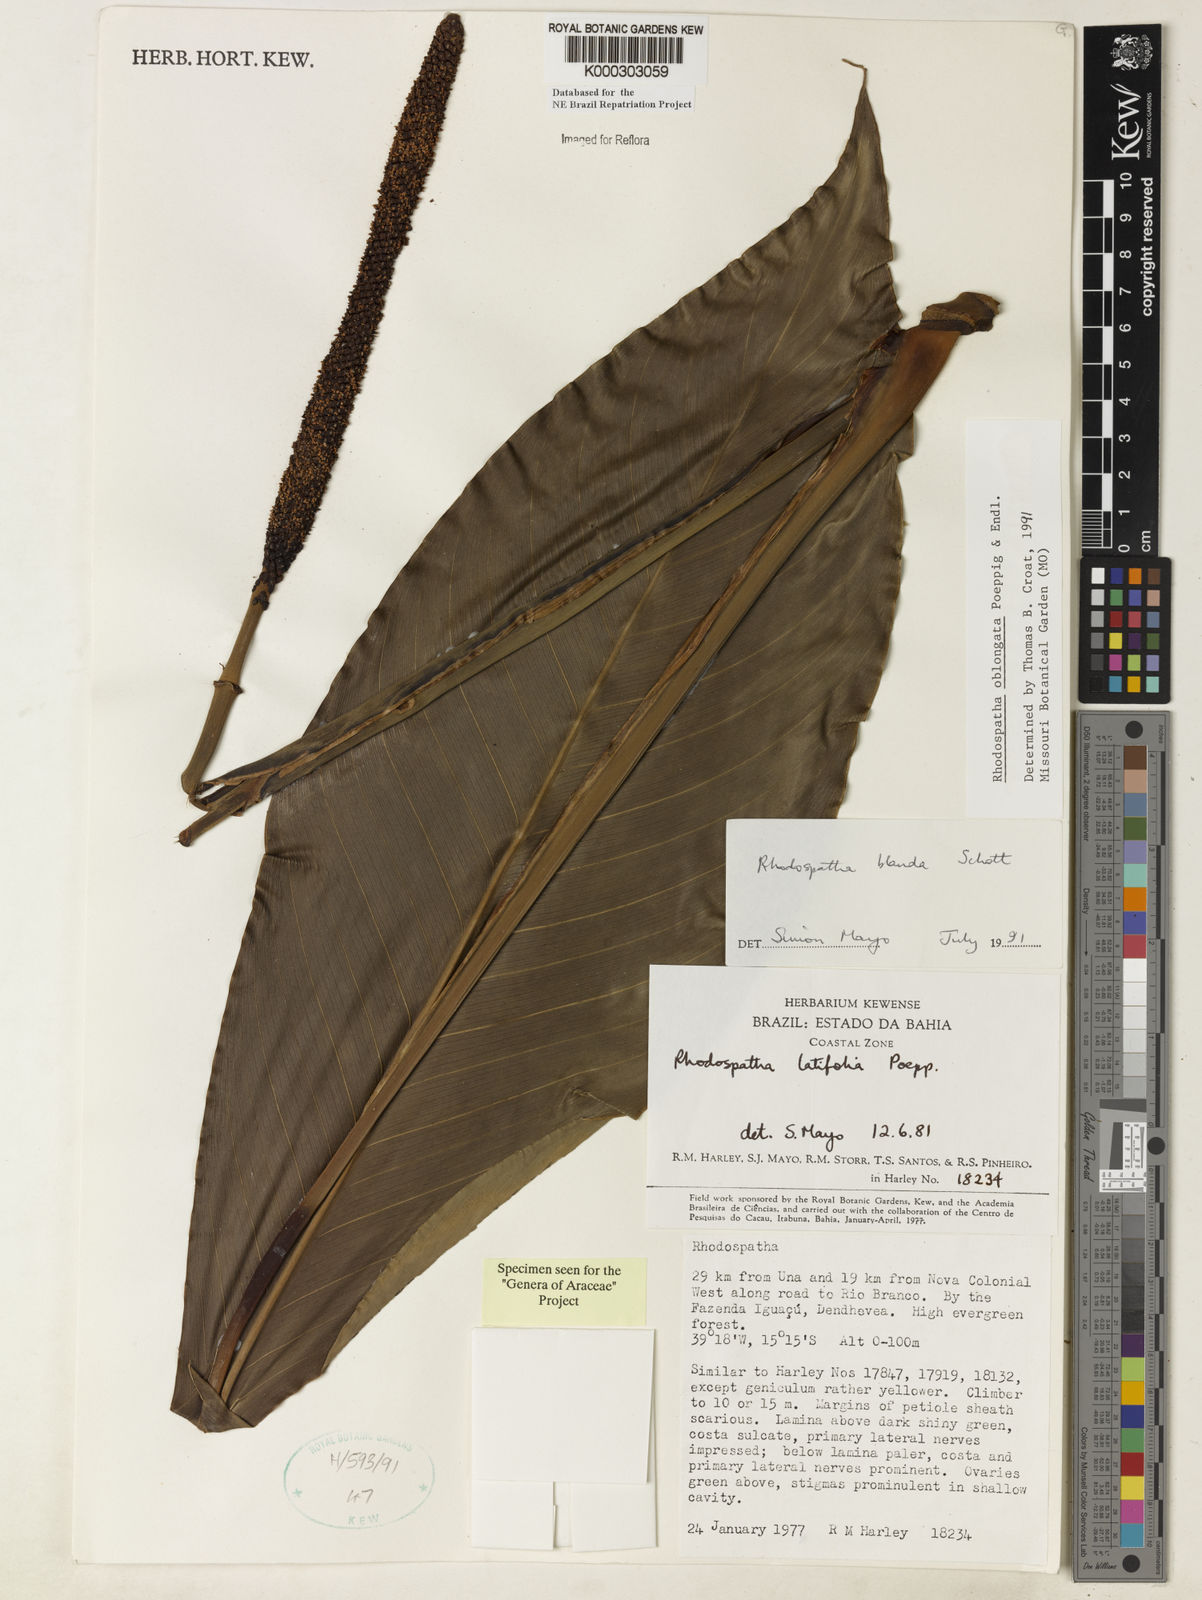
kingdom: Plantae
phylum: Tracheophyta
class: Liliopsida
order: Alismatales
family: Araceae
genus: Rhodospatha
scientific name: Rhodospatha oblongata
